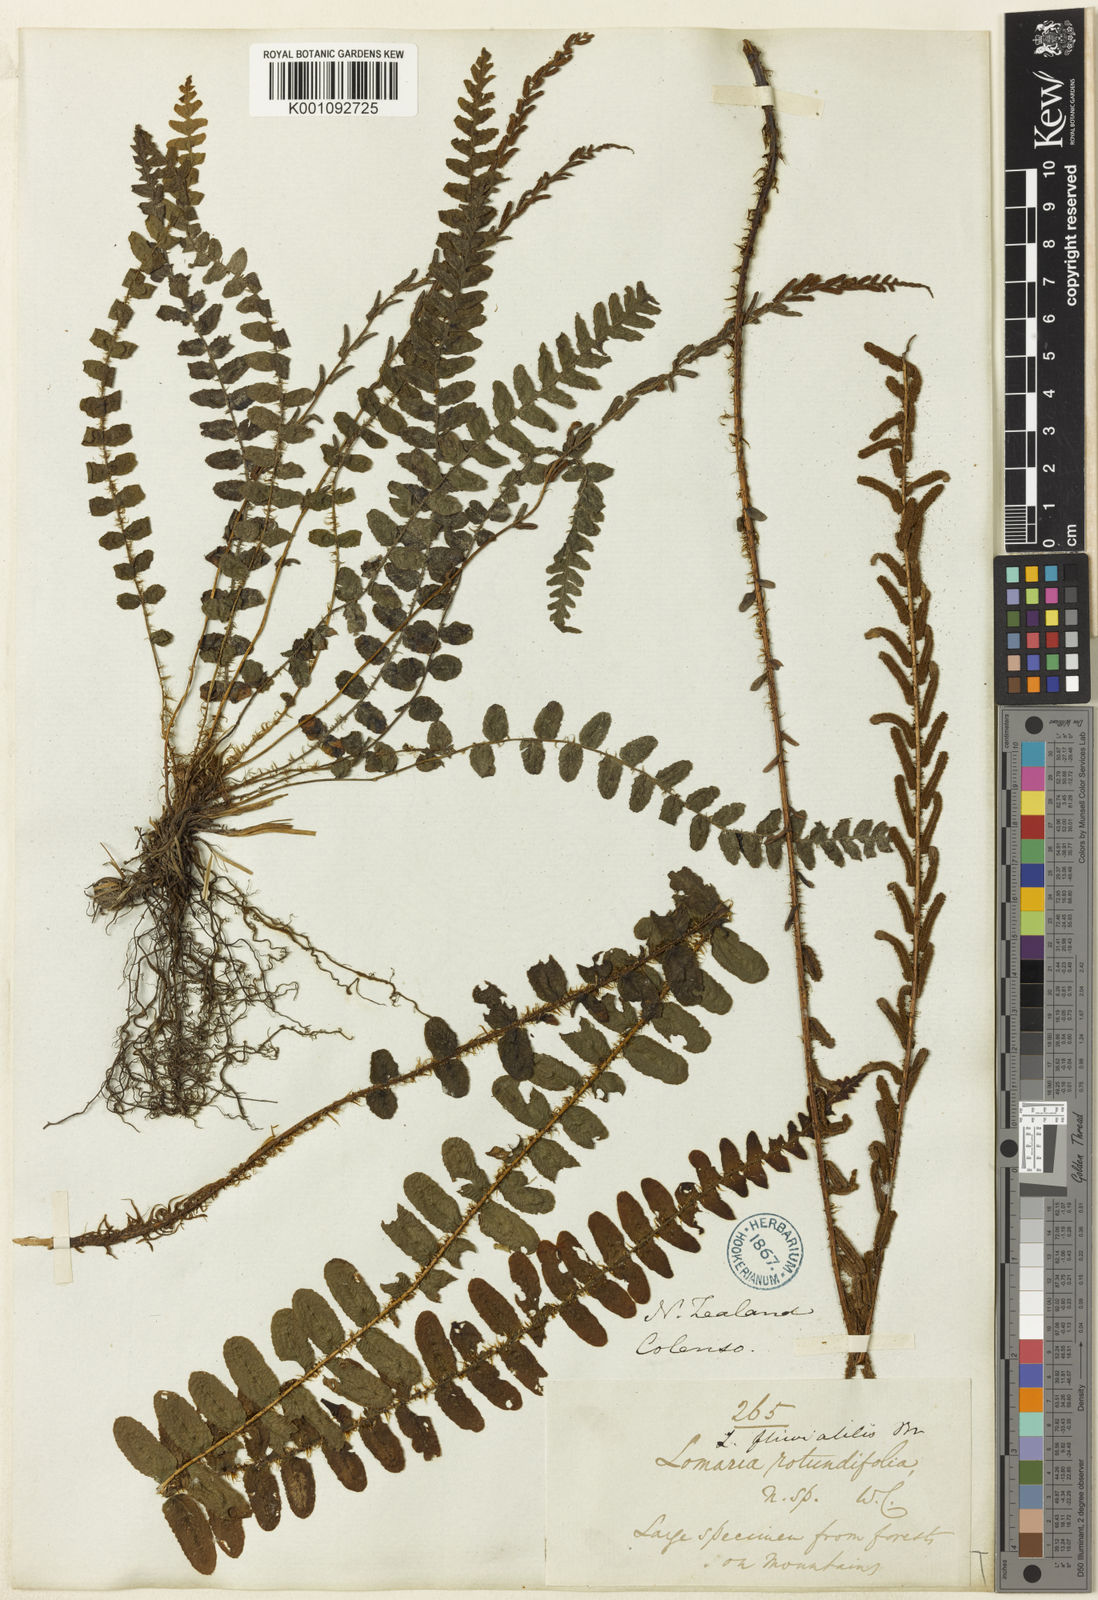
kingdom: Plantae
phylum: Tracheophyta
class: Polypodiopsida
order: Polypodiales
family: Blechnaceae
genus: Blechnum
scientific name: Blechnum
